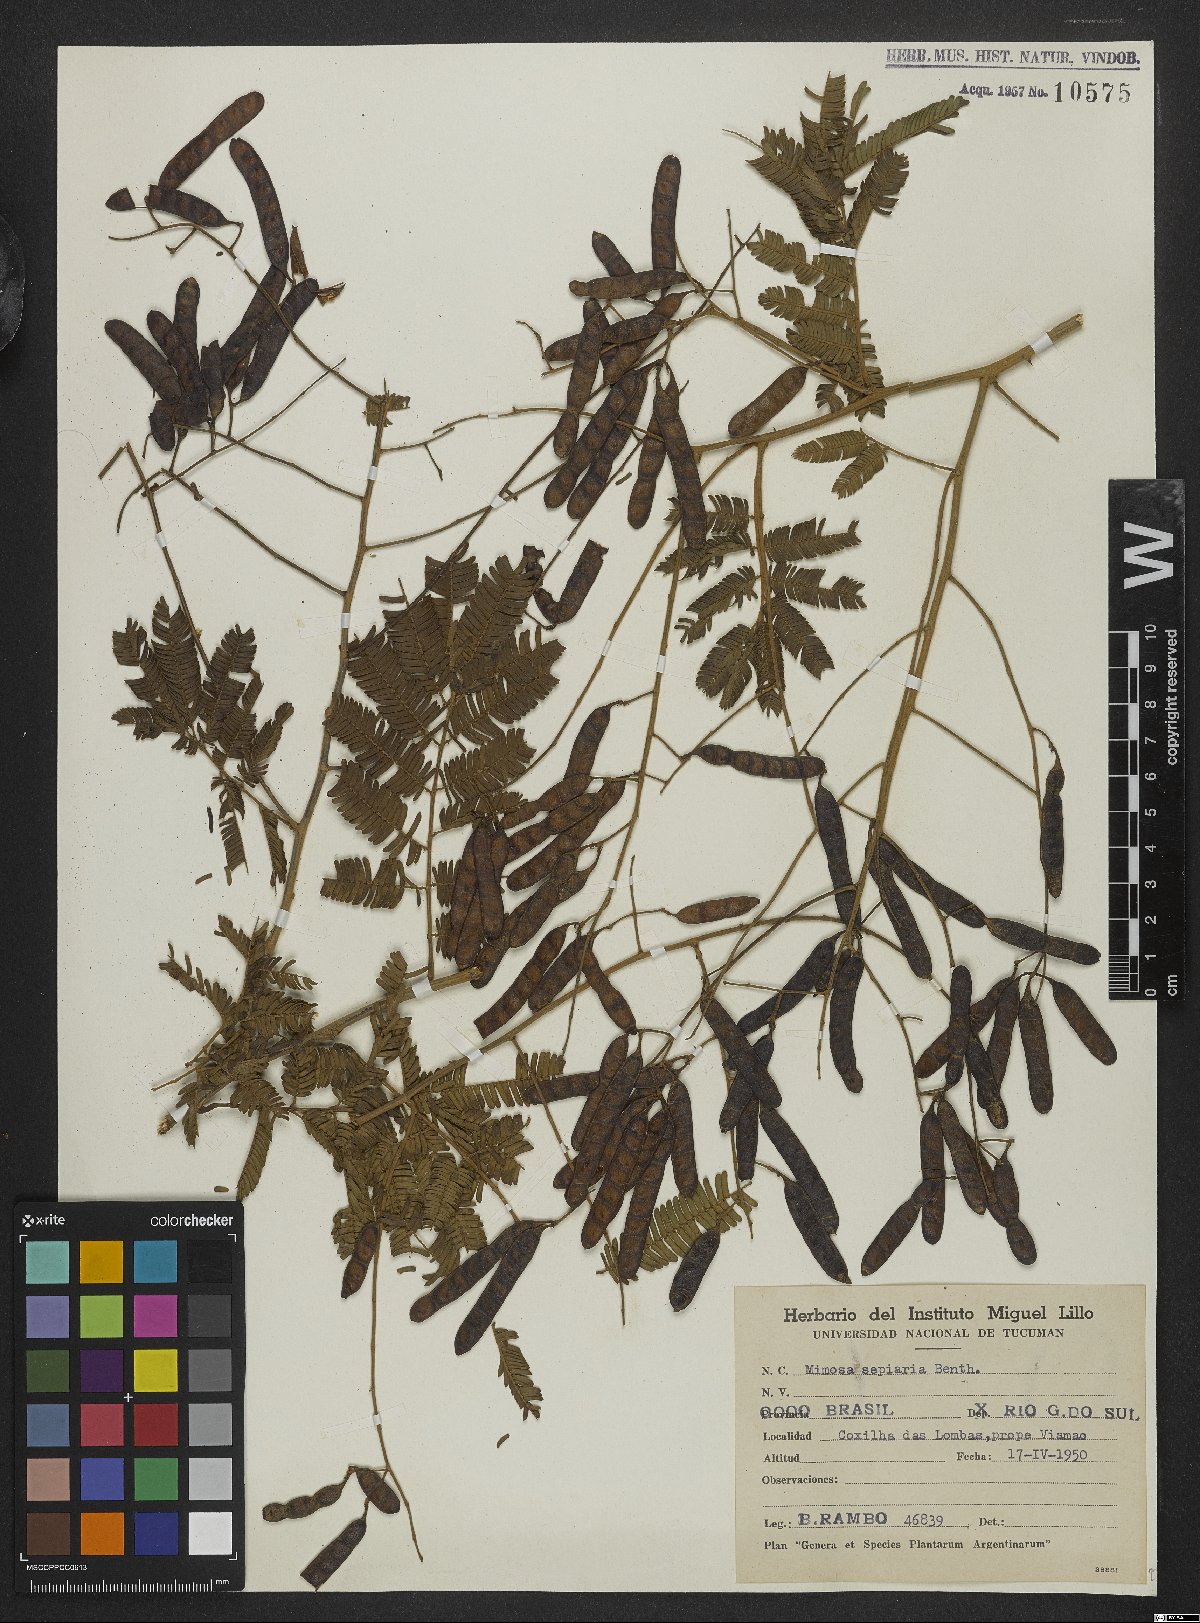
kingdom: Plantae
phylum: Tracheophyta
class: Magnoliopsida
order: Fabales
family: Fabaceae
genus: Mimosa
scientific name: Mimosa bimucronata
